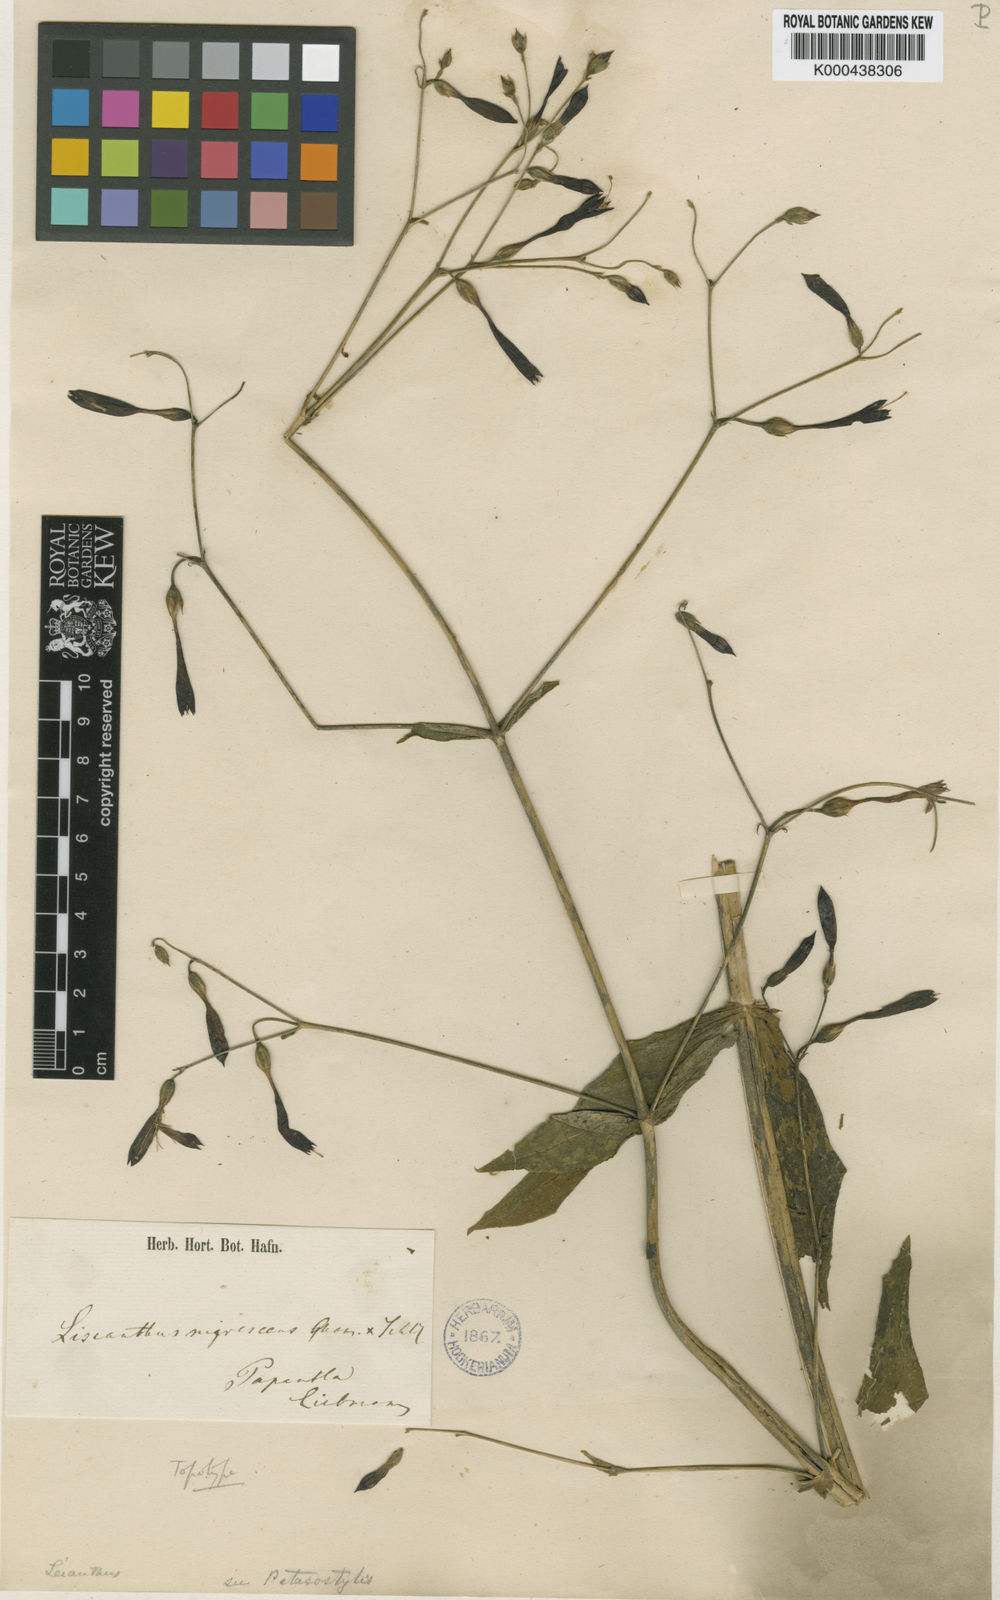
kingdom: Plantae
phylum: Tracheophyta
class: Magnoliopsida
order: Gentianales
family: Gentianaceae
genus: Lisianthus
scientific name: Lisianthus nigrescens
